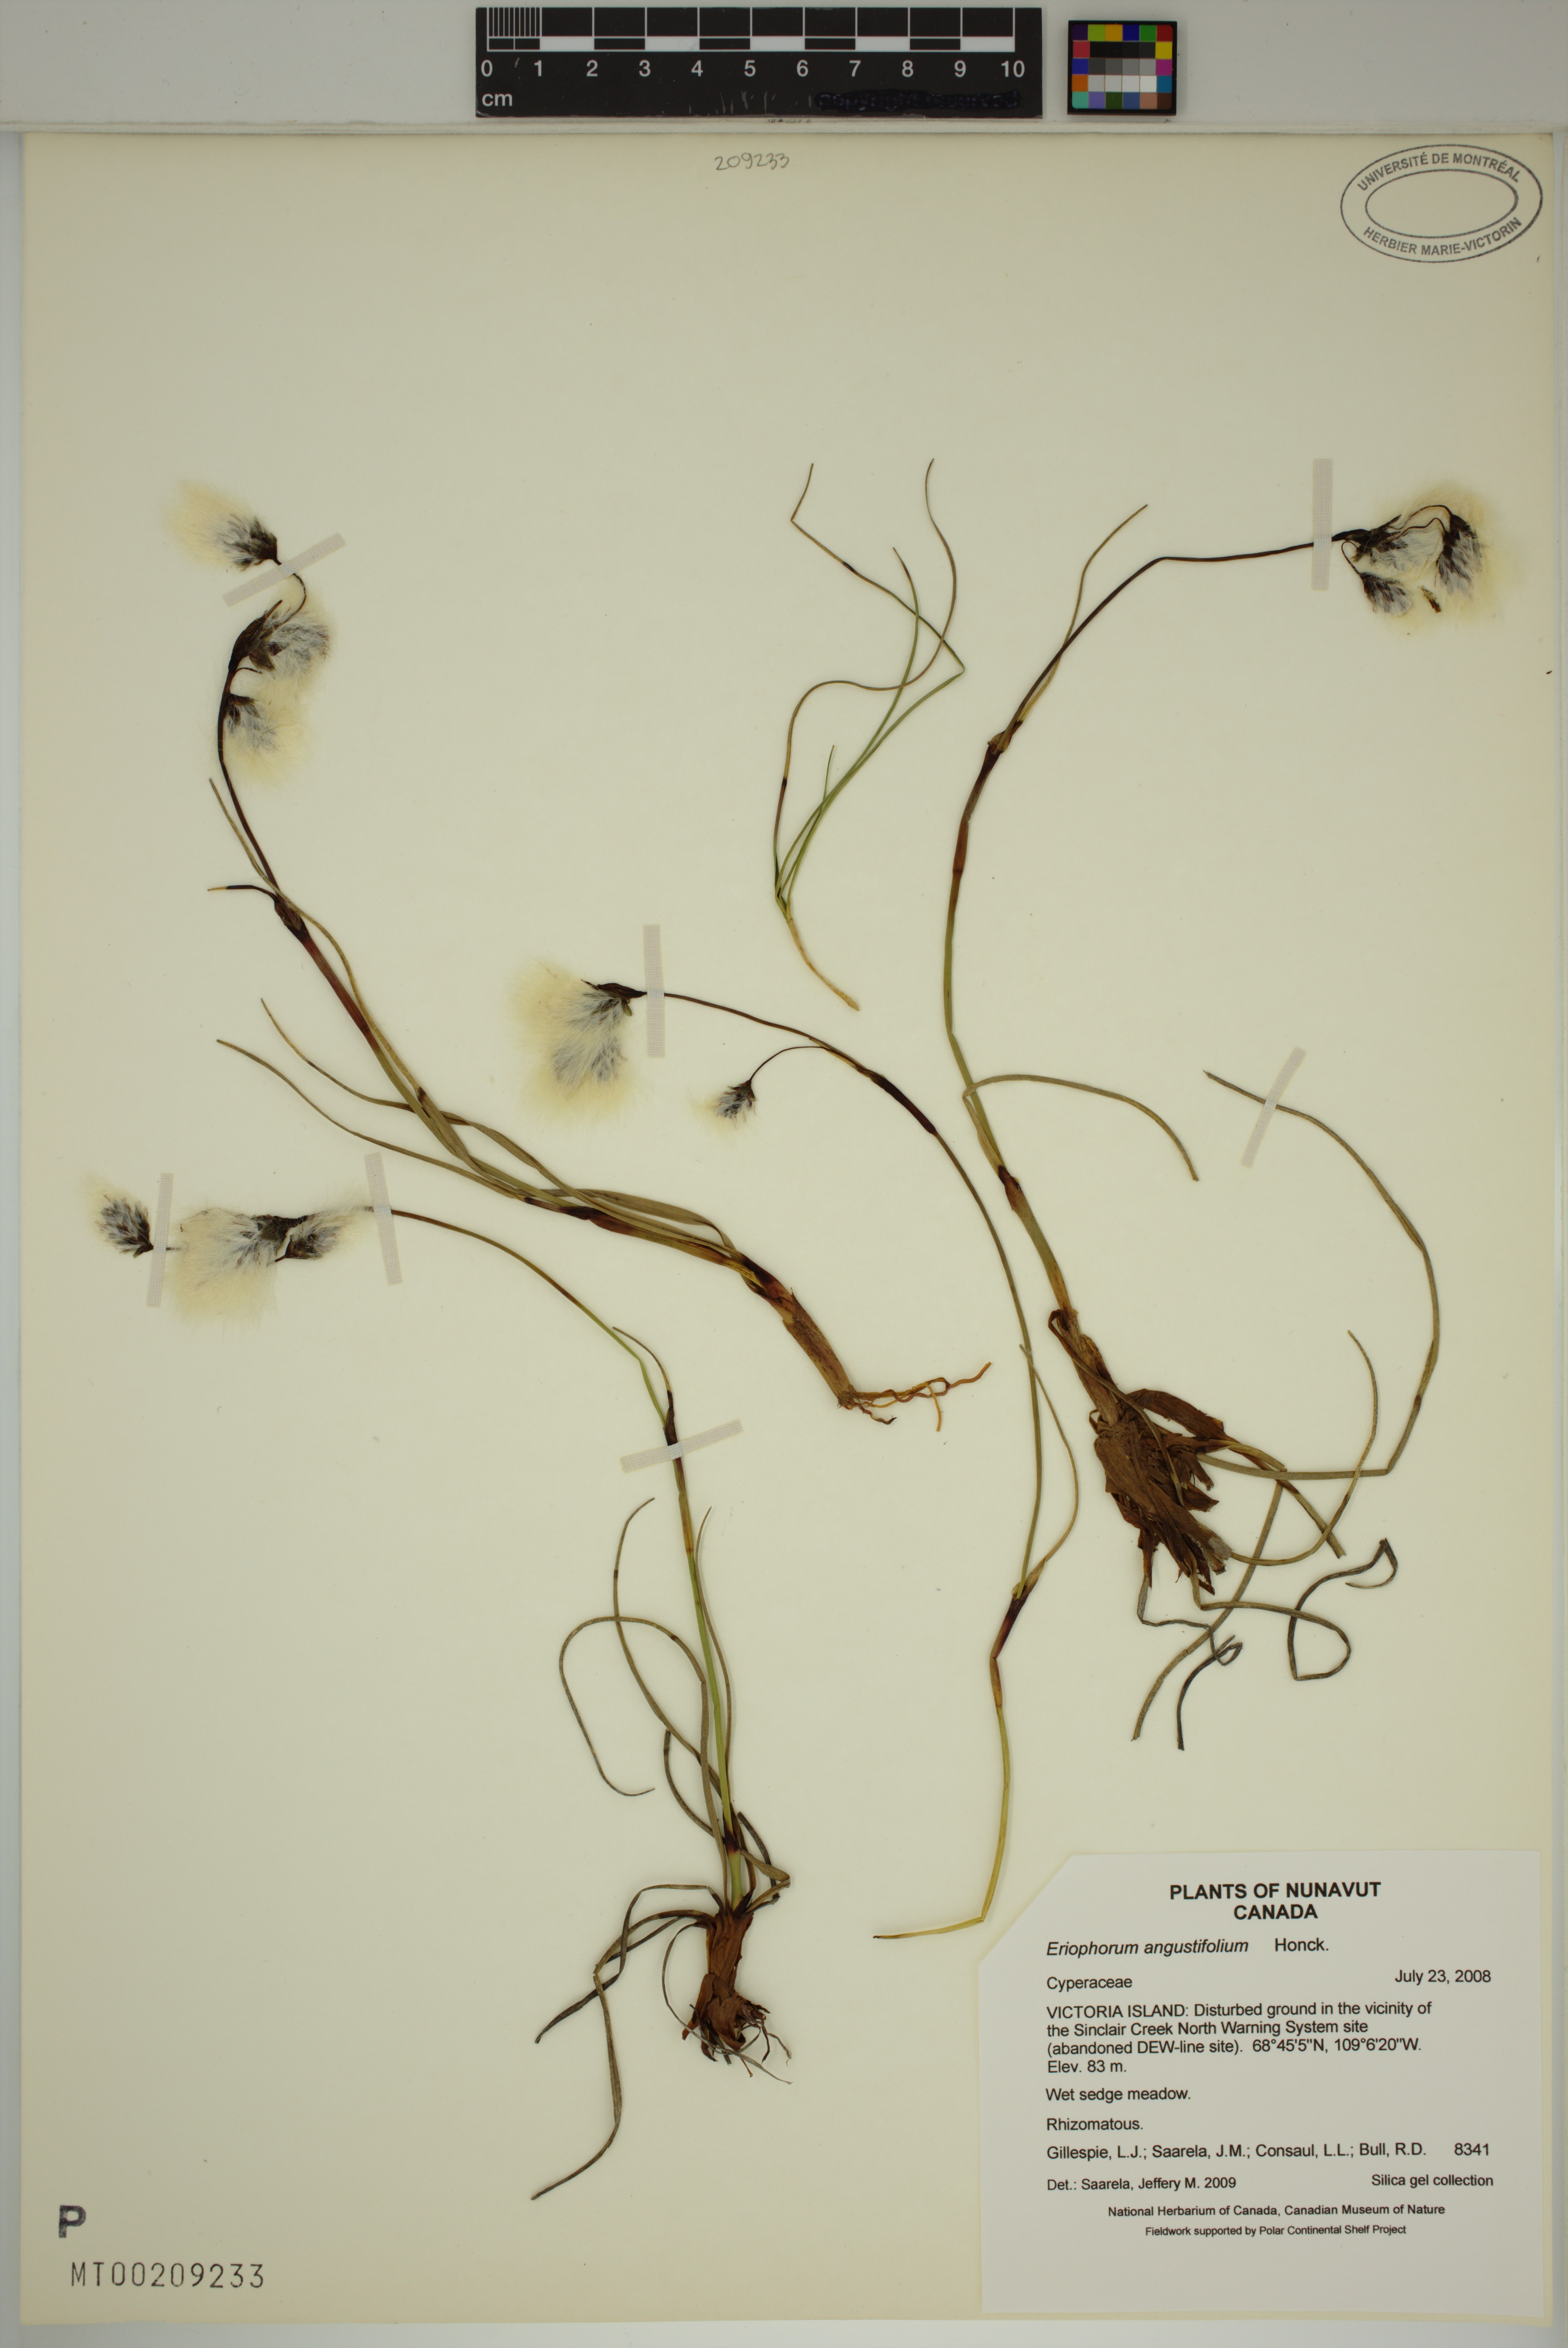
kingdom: Plantae
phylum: Tracheophyta
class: Liliopsida
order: Poales
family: Cyperaceae
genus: Eriophorum
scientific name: Eriophorum angustifolium
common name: Common cottongrass
